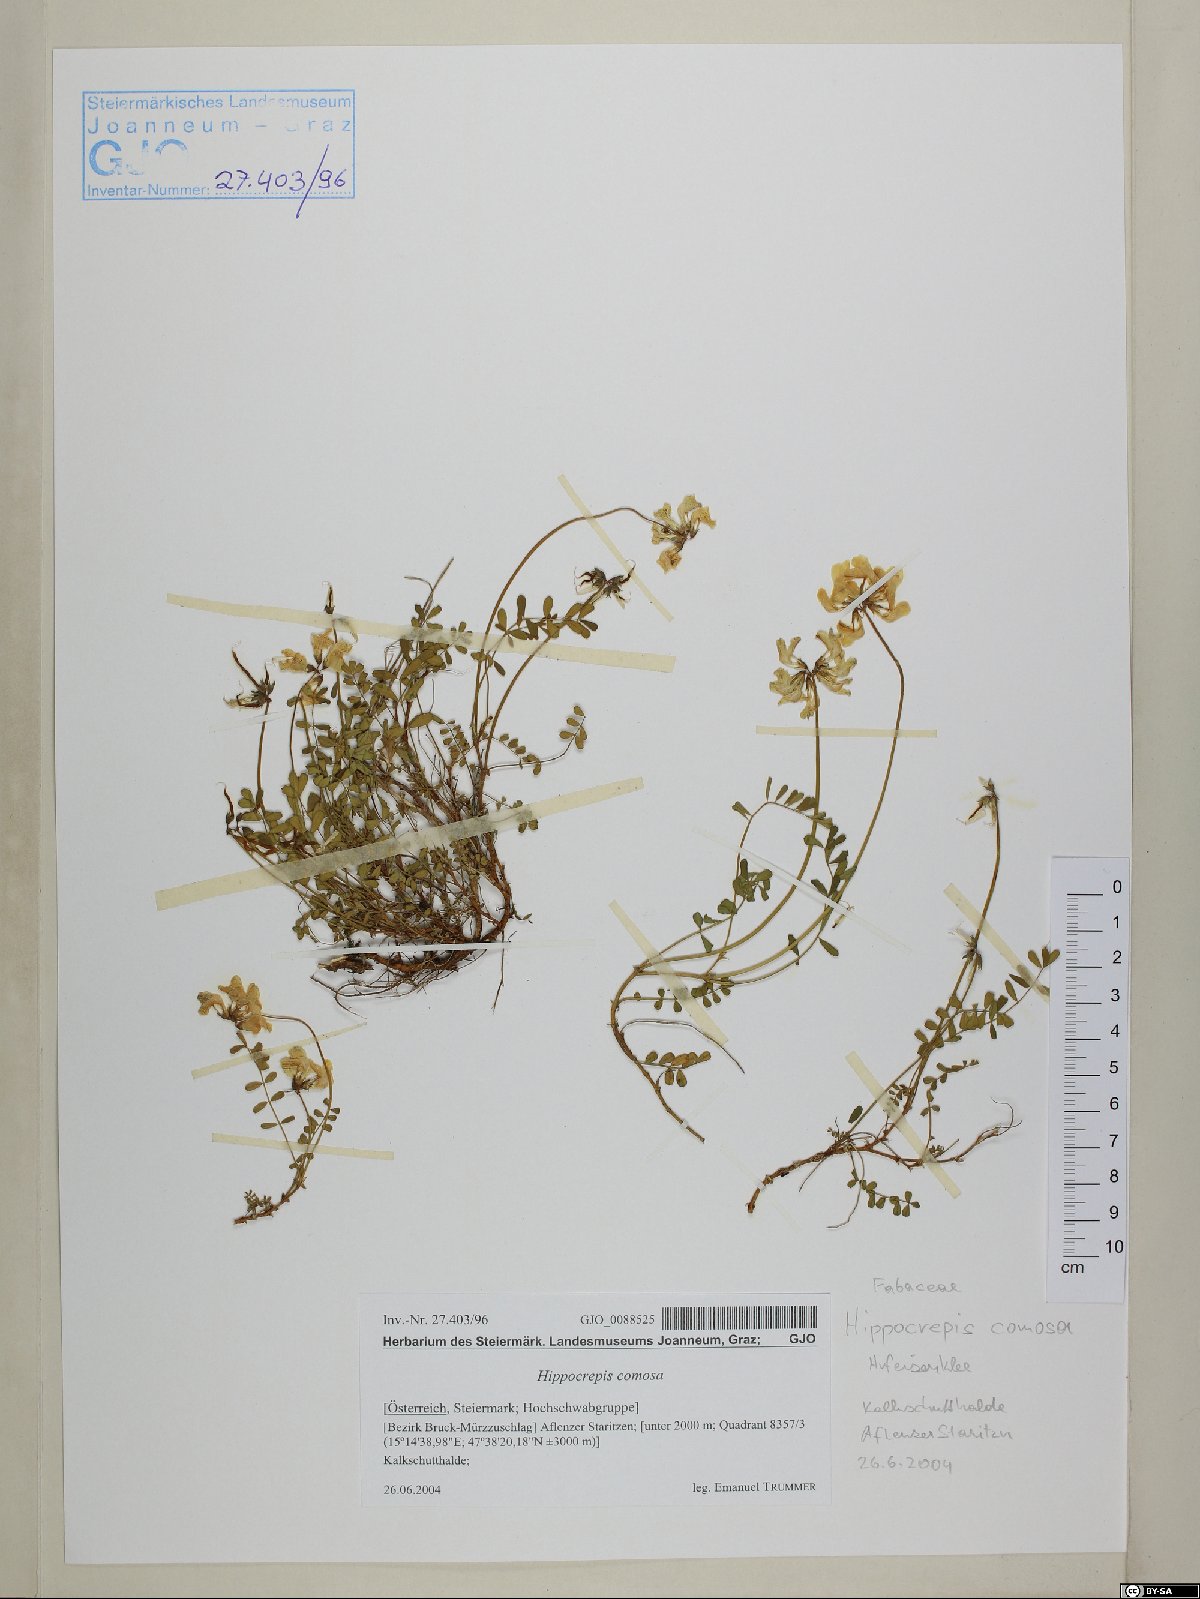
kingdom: Plantae
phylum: Tracheophyta
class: Magnoliopsida
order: Fabales
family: Fabaceae
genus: Hippocrepis
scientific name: Hippocrepis comosa
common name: Horseshoe vetch
